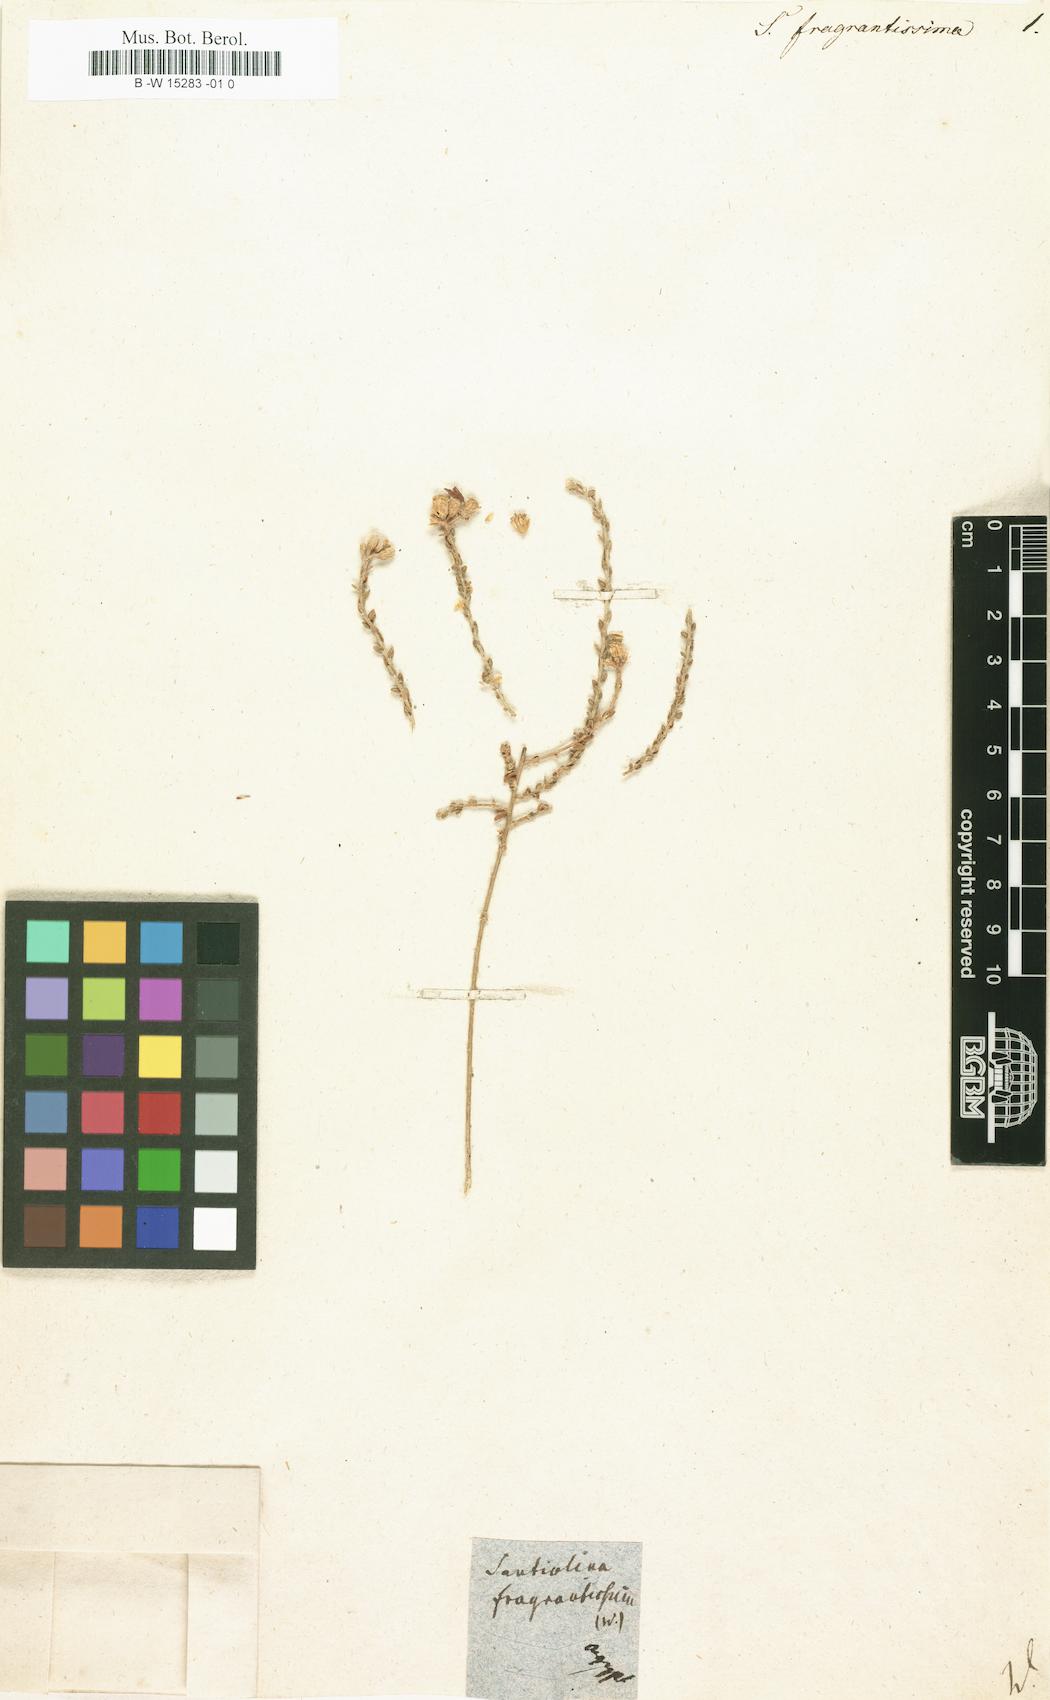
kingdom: Plantae
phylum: Tracheophyta
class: Magnoliopsida
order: Asterales
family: Asteraceae
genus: Achillea
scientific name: Achillea fragrantissima
